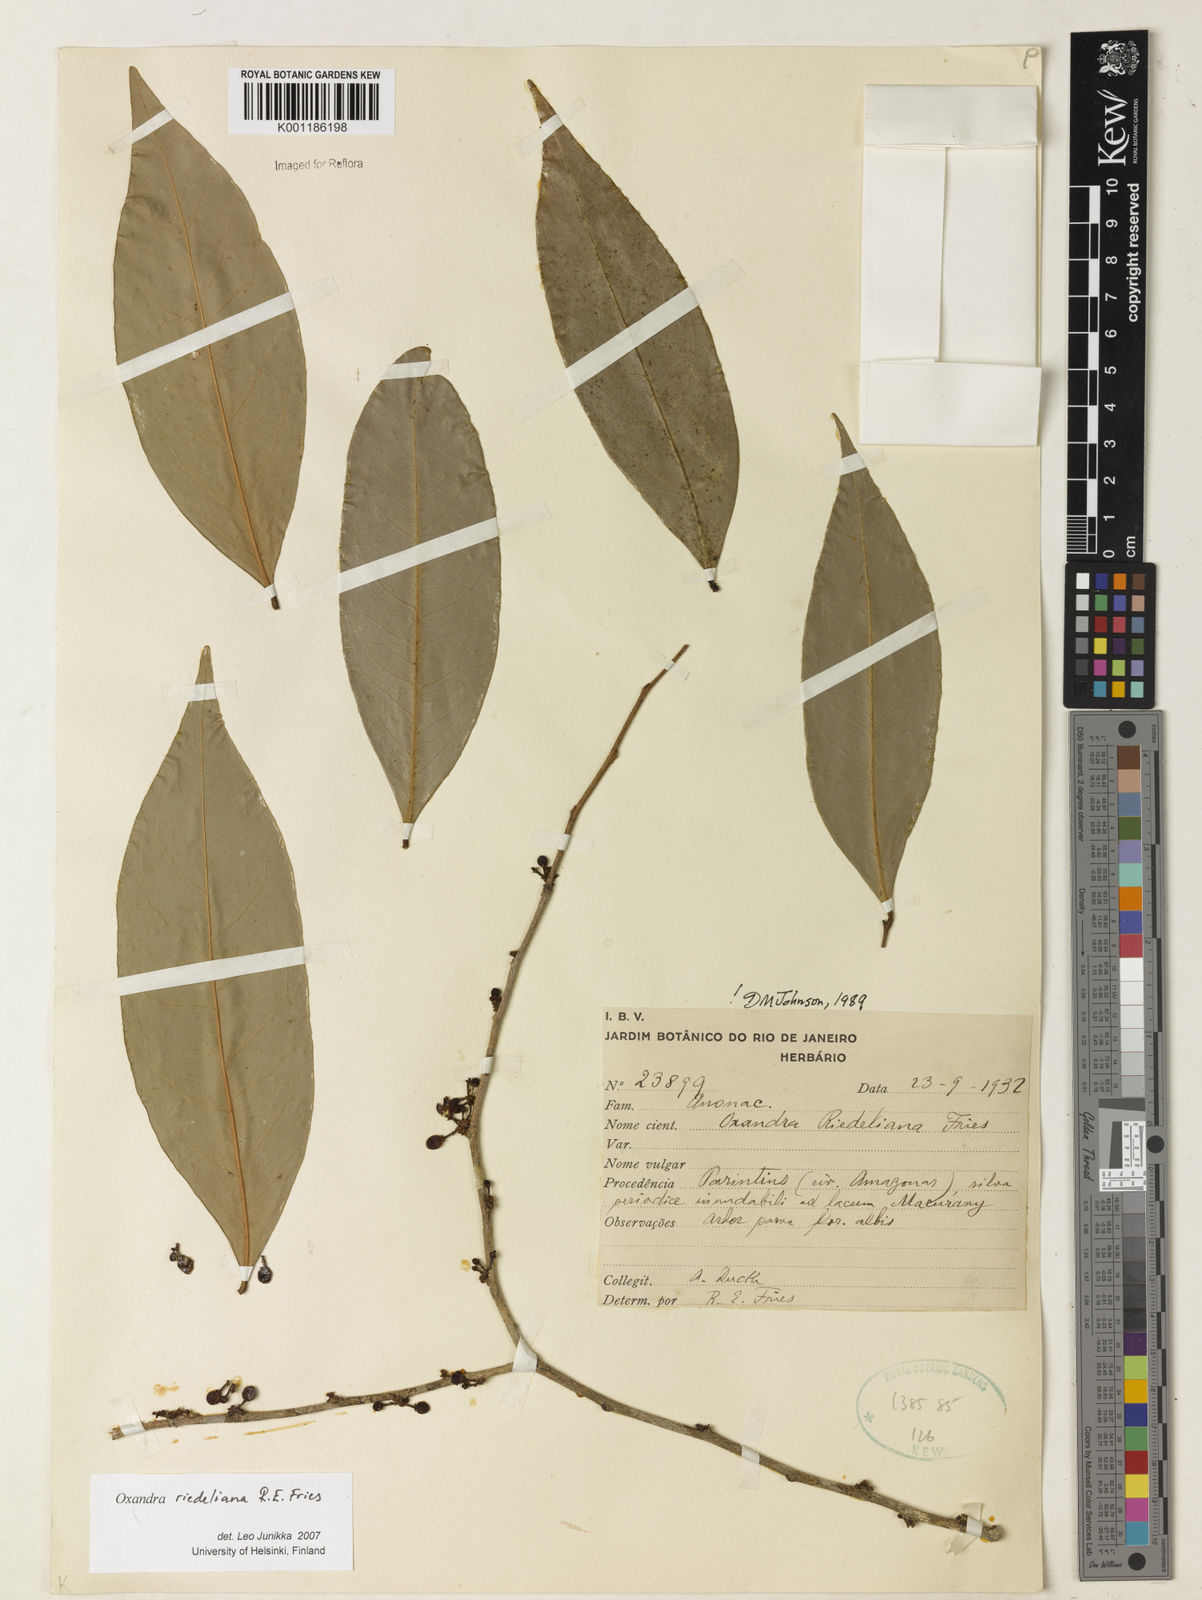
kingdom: Plantae
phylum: Tracheophyta
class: Magnoliopsida
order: Magnoliales
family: Annonaceae
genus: Oxandra
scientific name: Oxandra riedeliana
